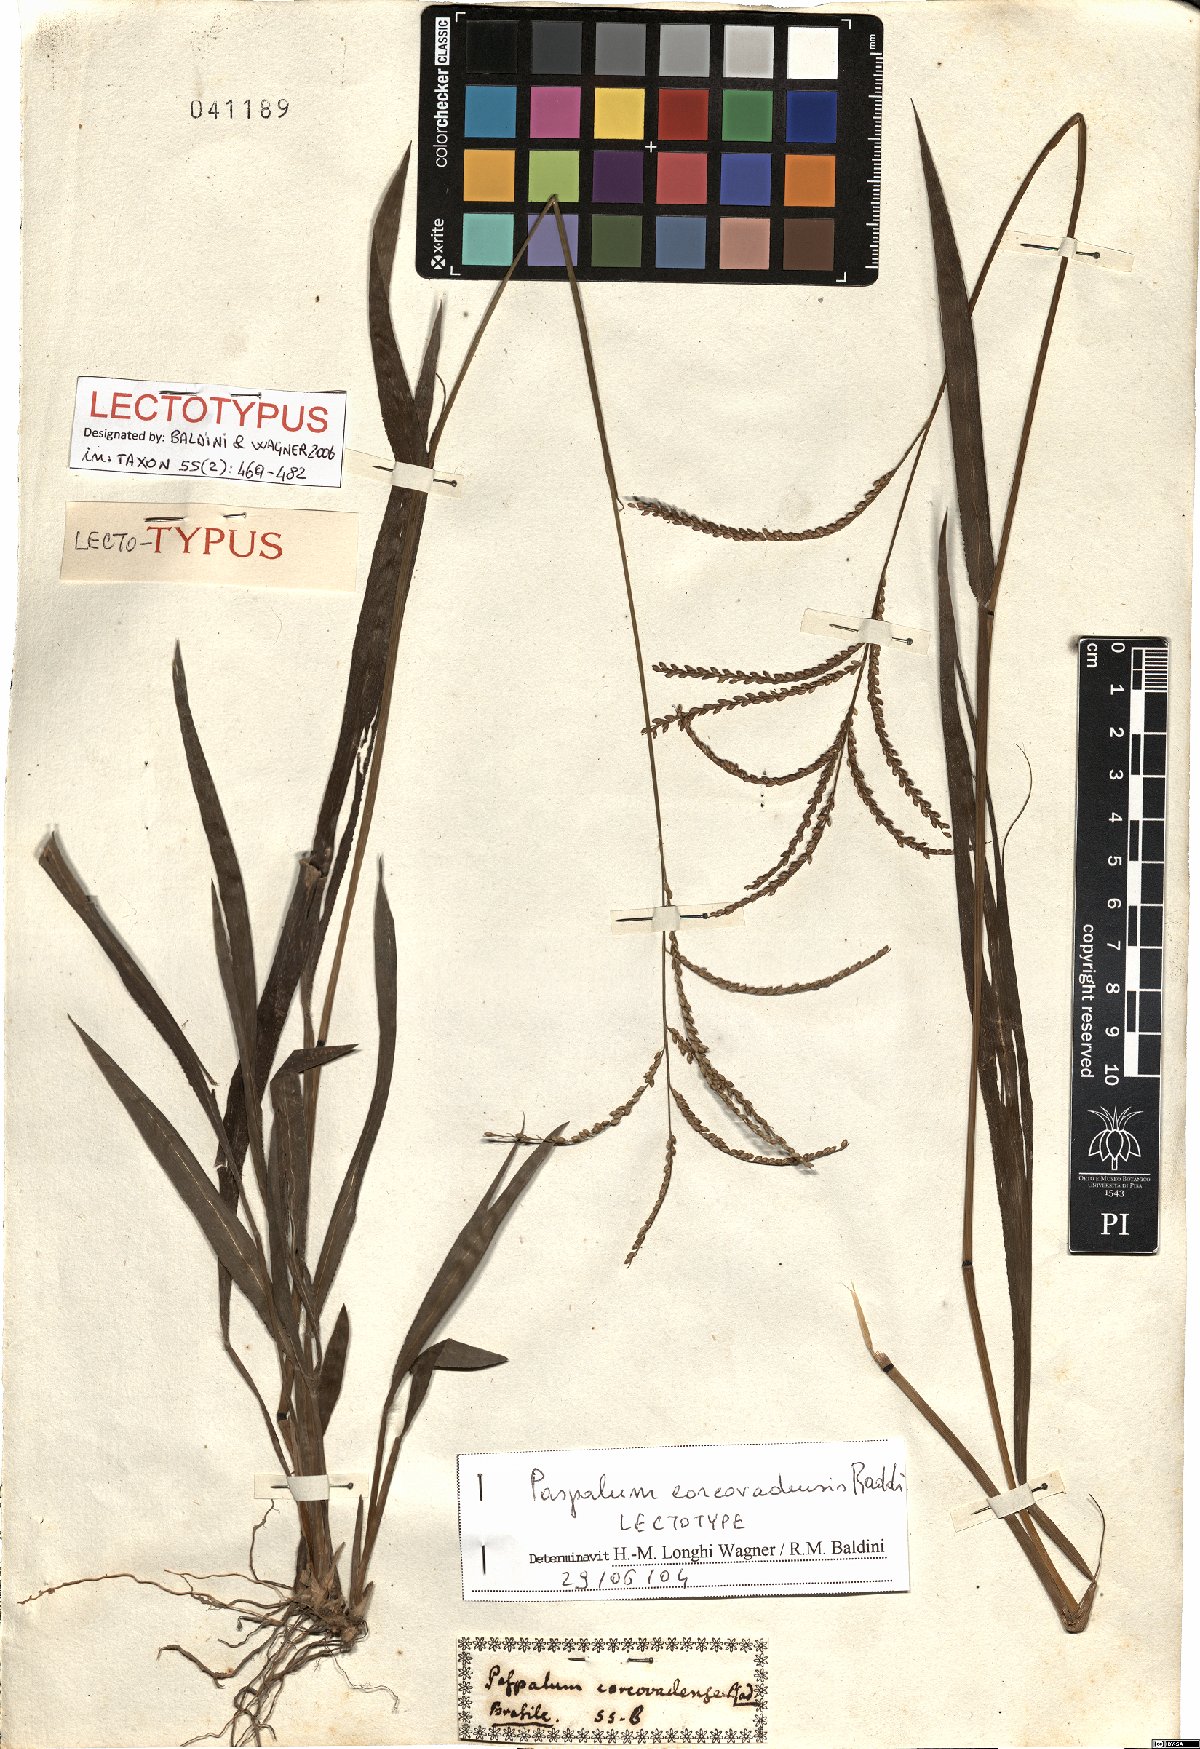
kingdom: Plantae
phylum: Tracheophyta
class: Liliopsida
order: Poales
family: Poaceae
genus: Paspalum
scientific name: Paspalum corcovadense
